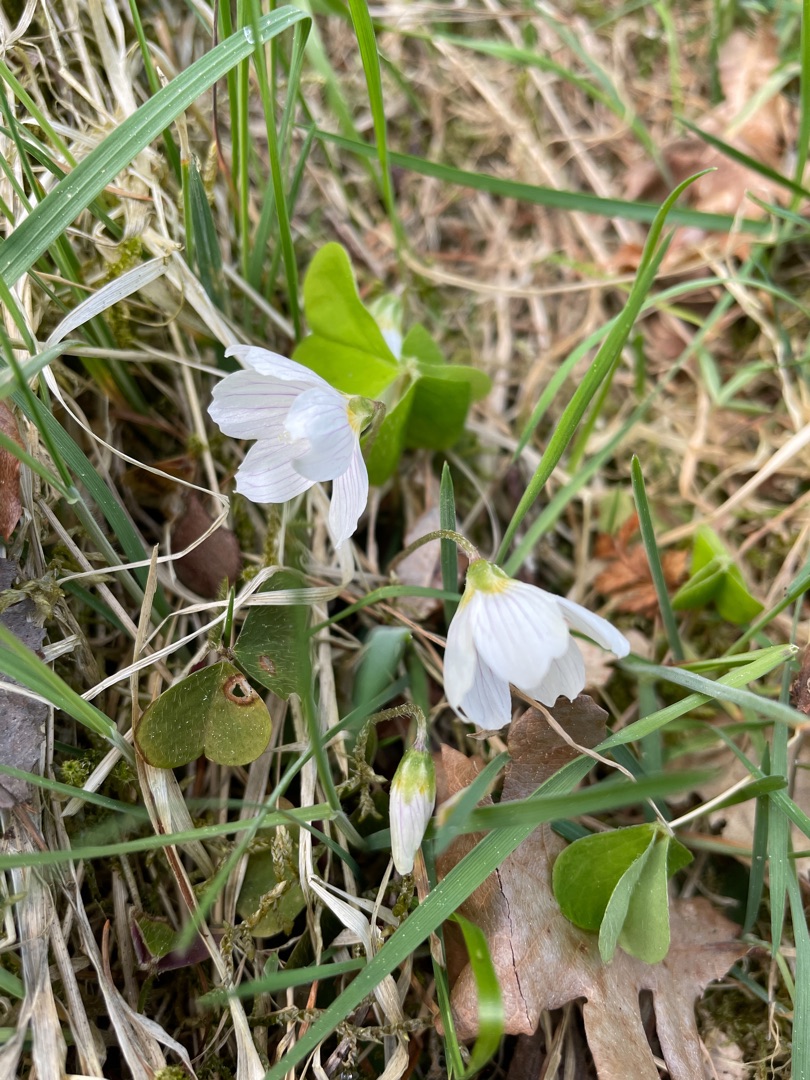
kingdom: Plantae
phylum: Tracheophyta
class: Magnoliopsida
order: Oxalidales
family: Oxalidaceae
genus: Oxalis
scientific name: Oxalis acetosella
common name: Skovsyre
